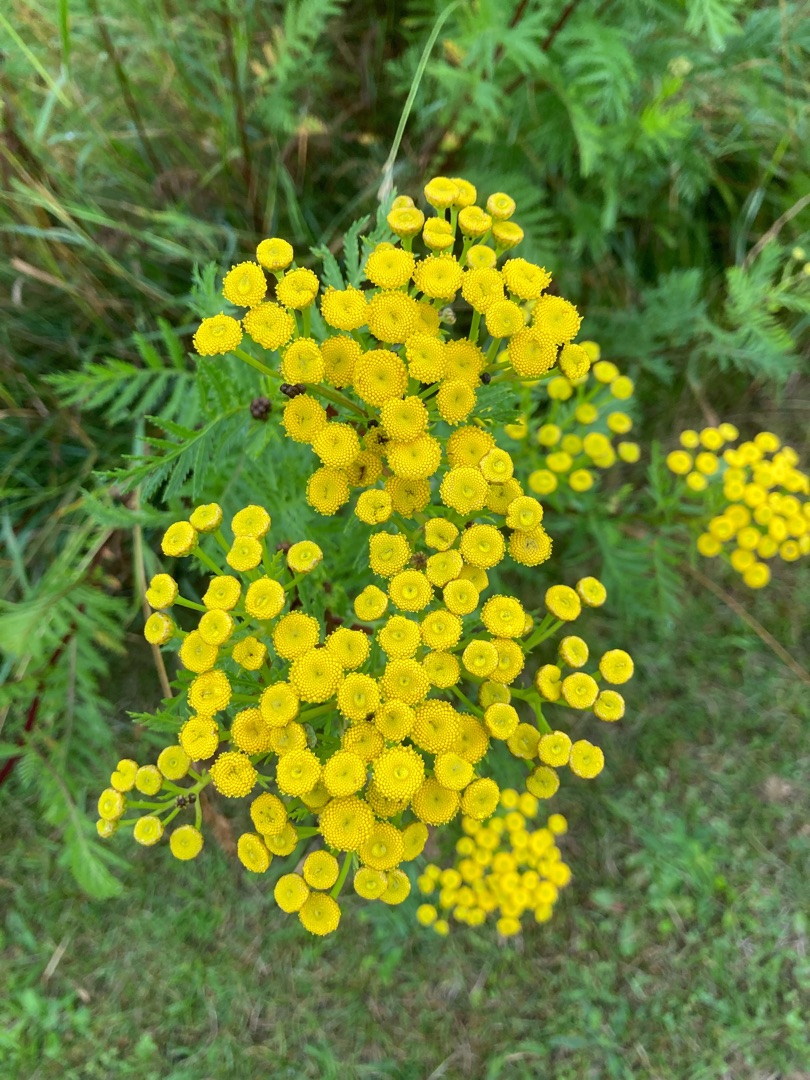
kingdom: Plantae
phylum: Tracheophyta
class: Magnoliopsida
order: Asterales
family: Asteraceae
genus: Tanacetum
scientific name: Tanacetum vulgare
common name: Rejnfan
